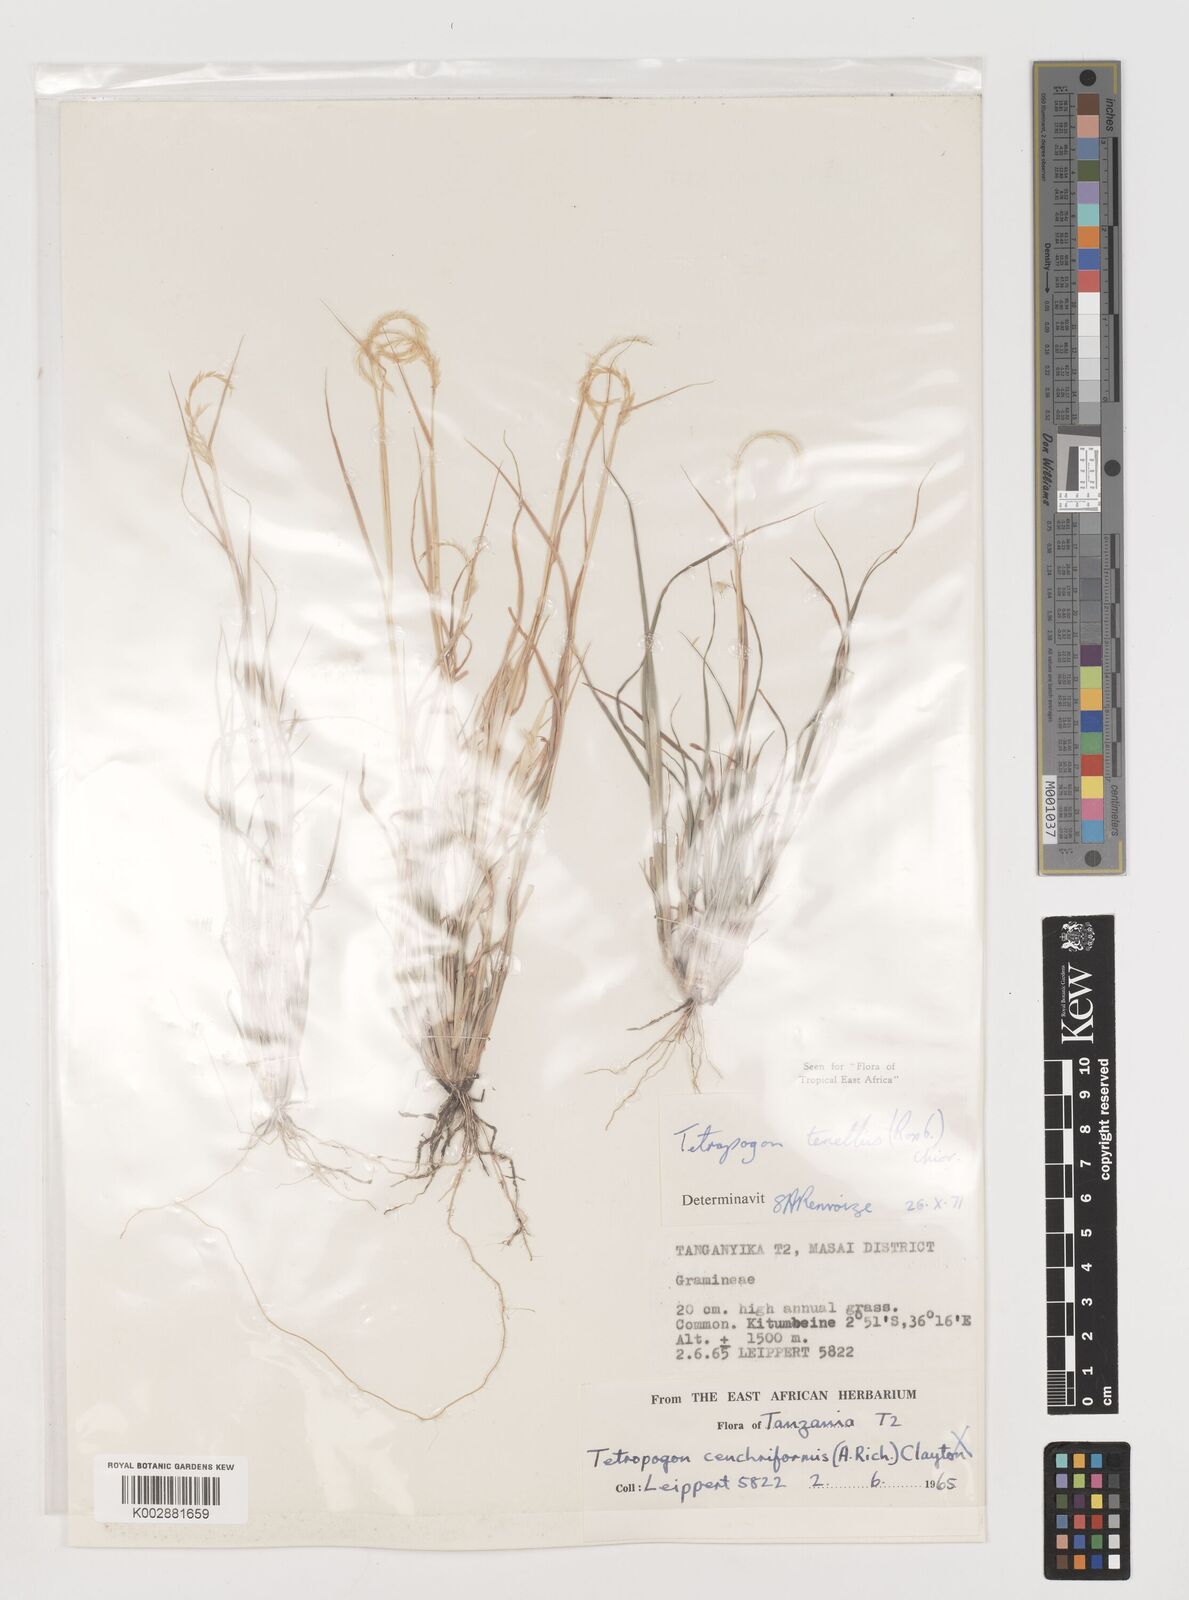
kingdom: Plantae
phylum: Tracheophyta
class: Liliopsida
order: Poales
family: Poaceae
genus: Tetrapogon
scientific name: Tetrapogon tenellus
